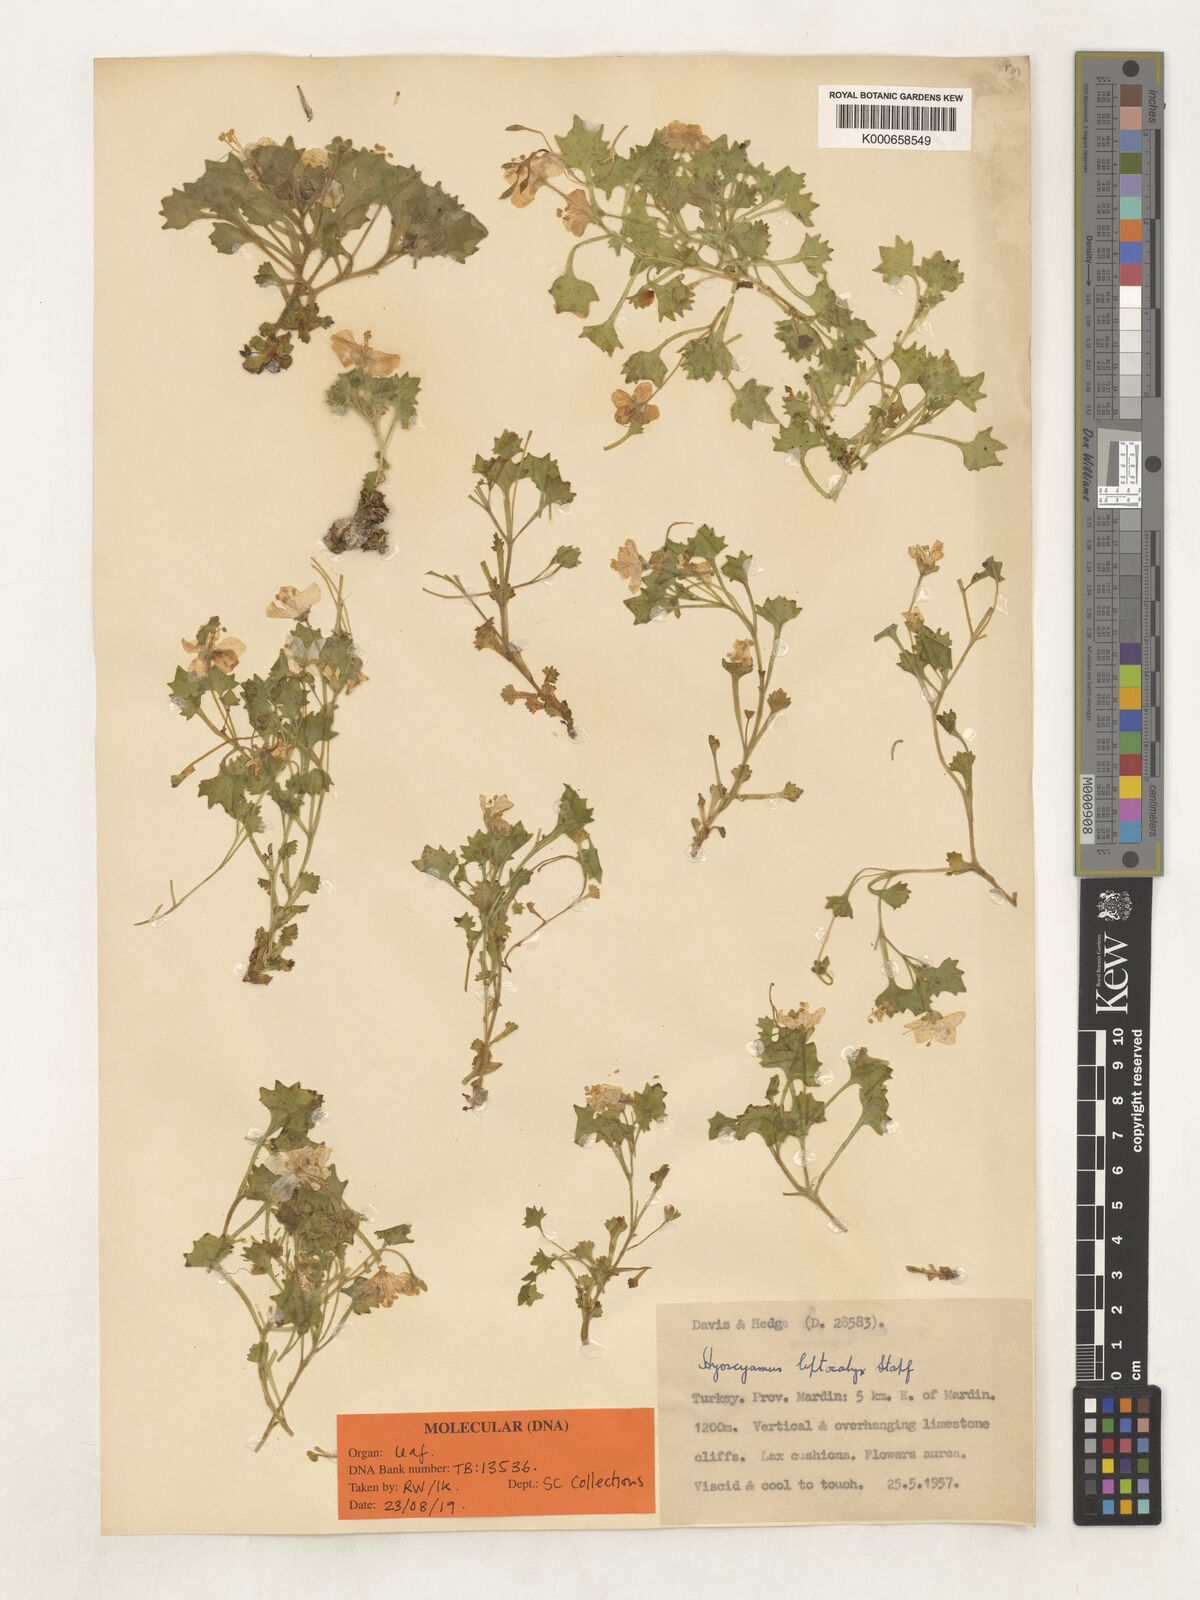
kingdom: Plantae
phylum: Tracheophyta
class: Magnoliopsida
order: Solanales
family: Solanaceae
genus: Hyoscyamus
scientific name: Hyoscyamus leptocalyx
